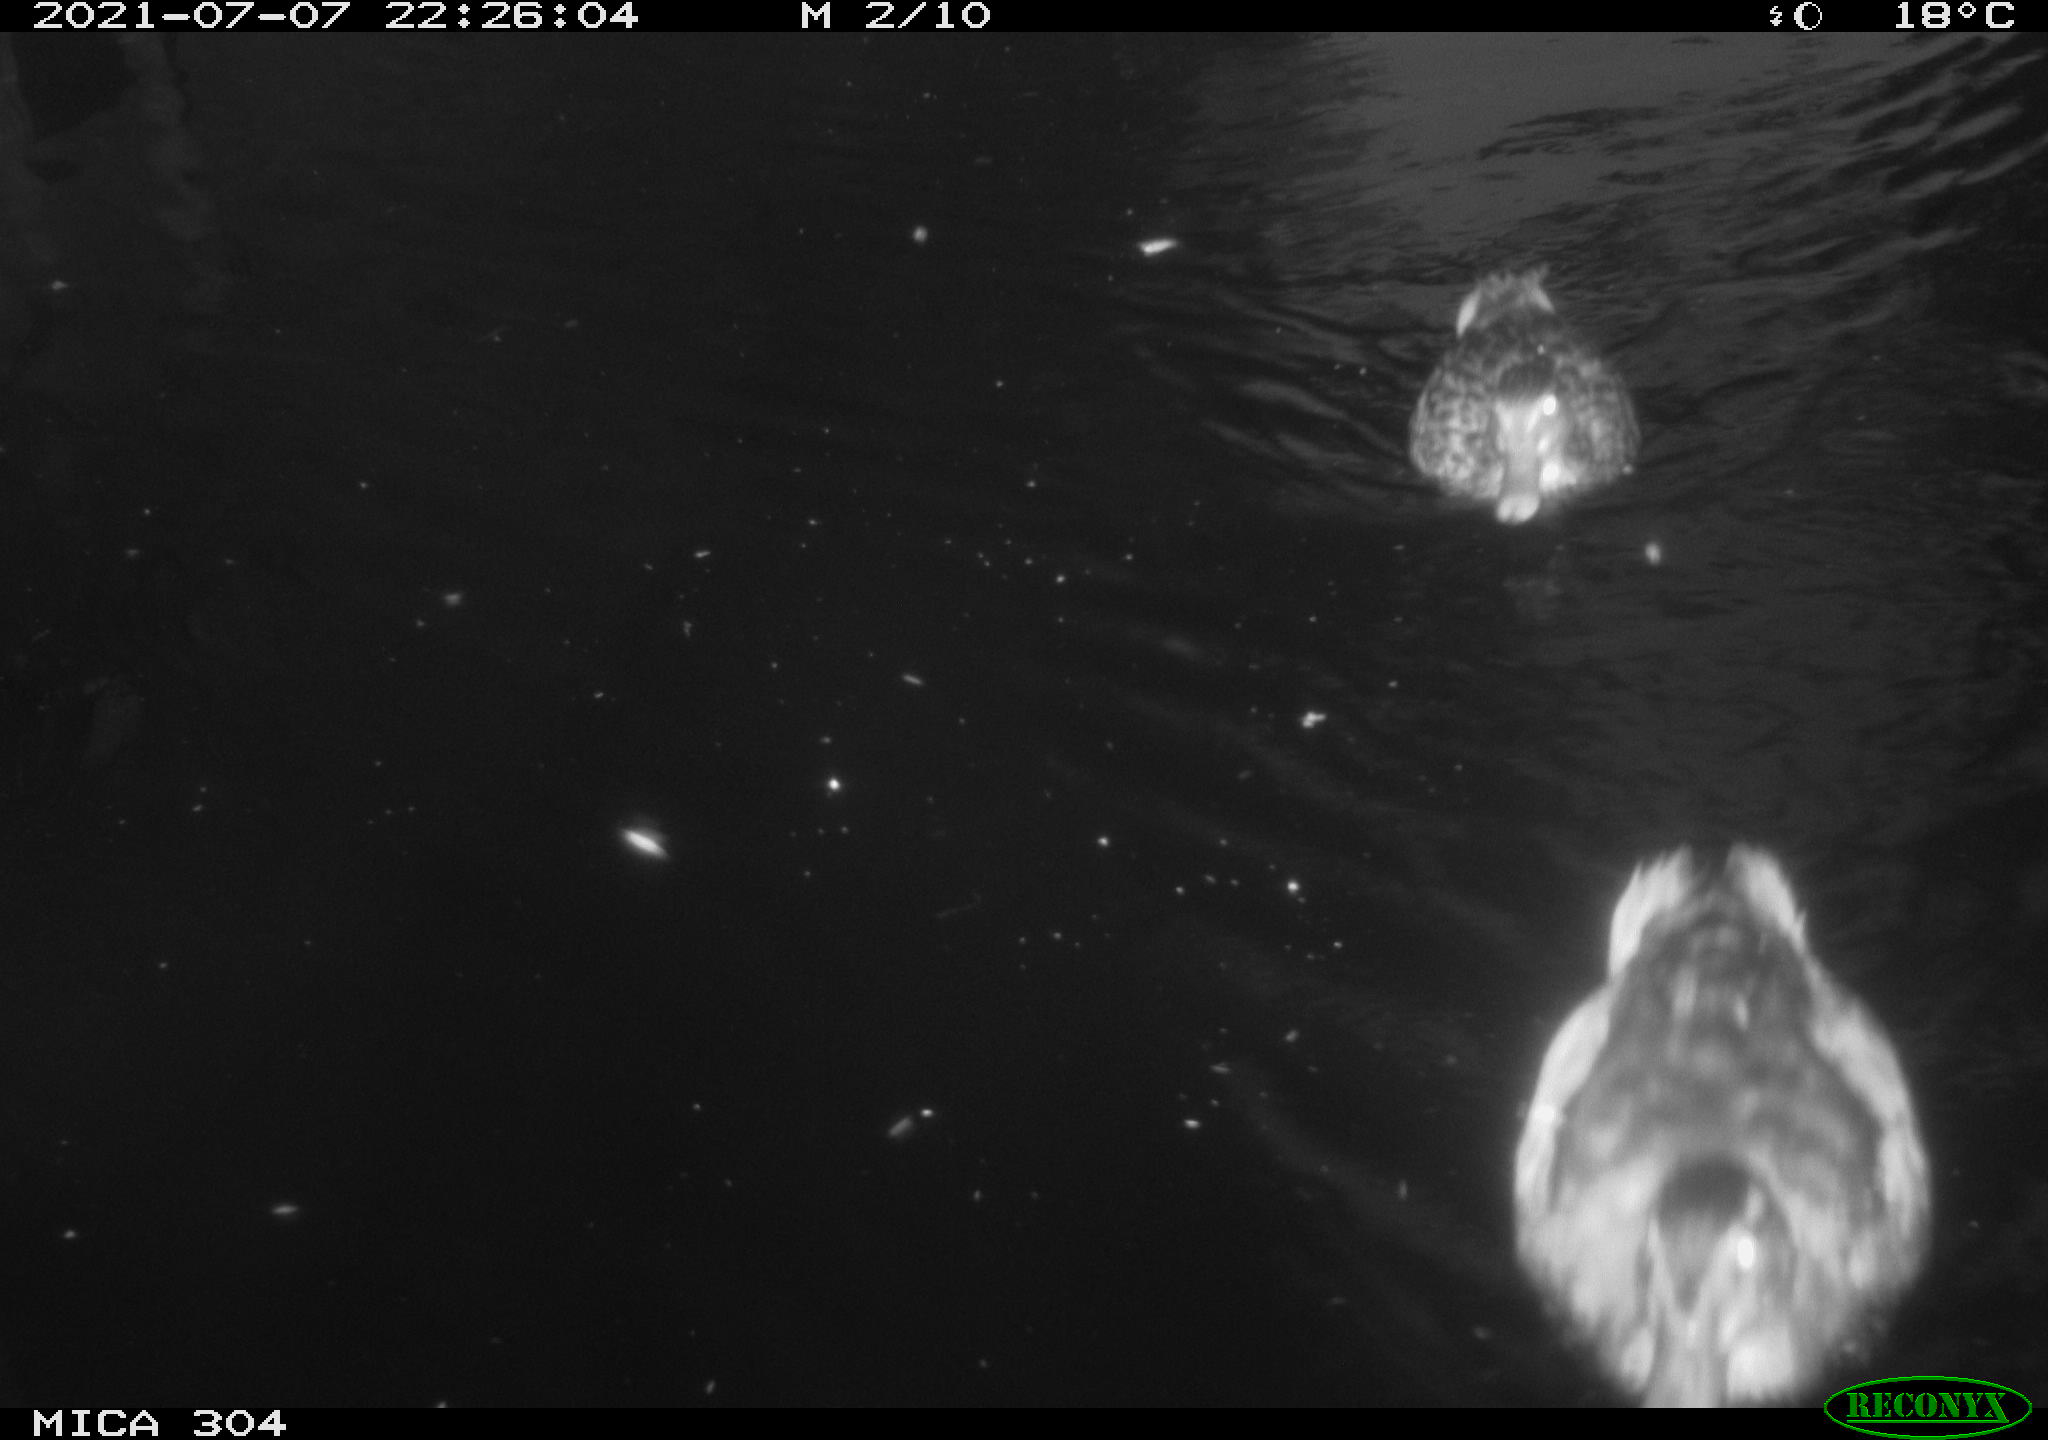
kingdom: Animalia
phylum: Chordata
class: Aves
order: Anseriformes
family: Anatidae
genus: Mareca
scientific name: Mareca strepera
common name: Gadwall
